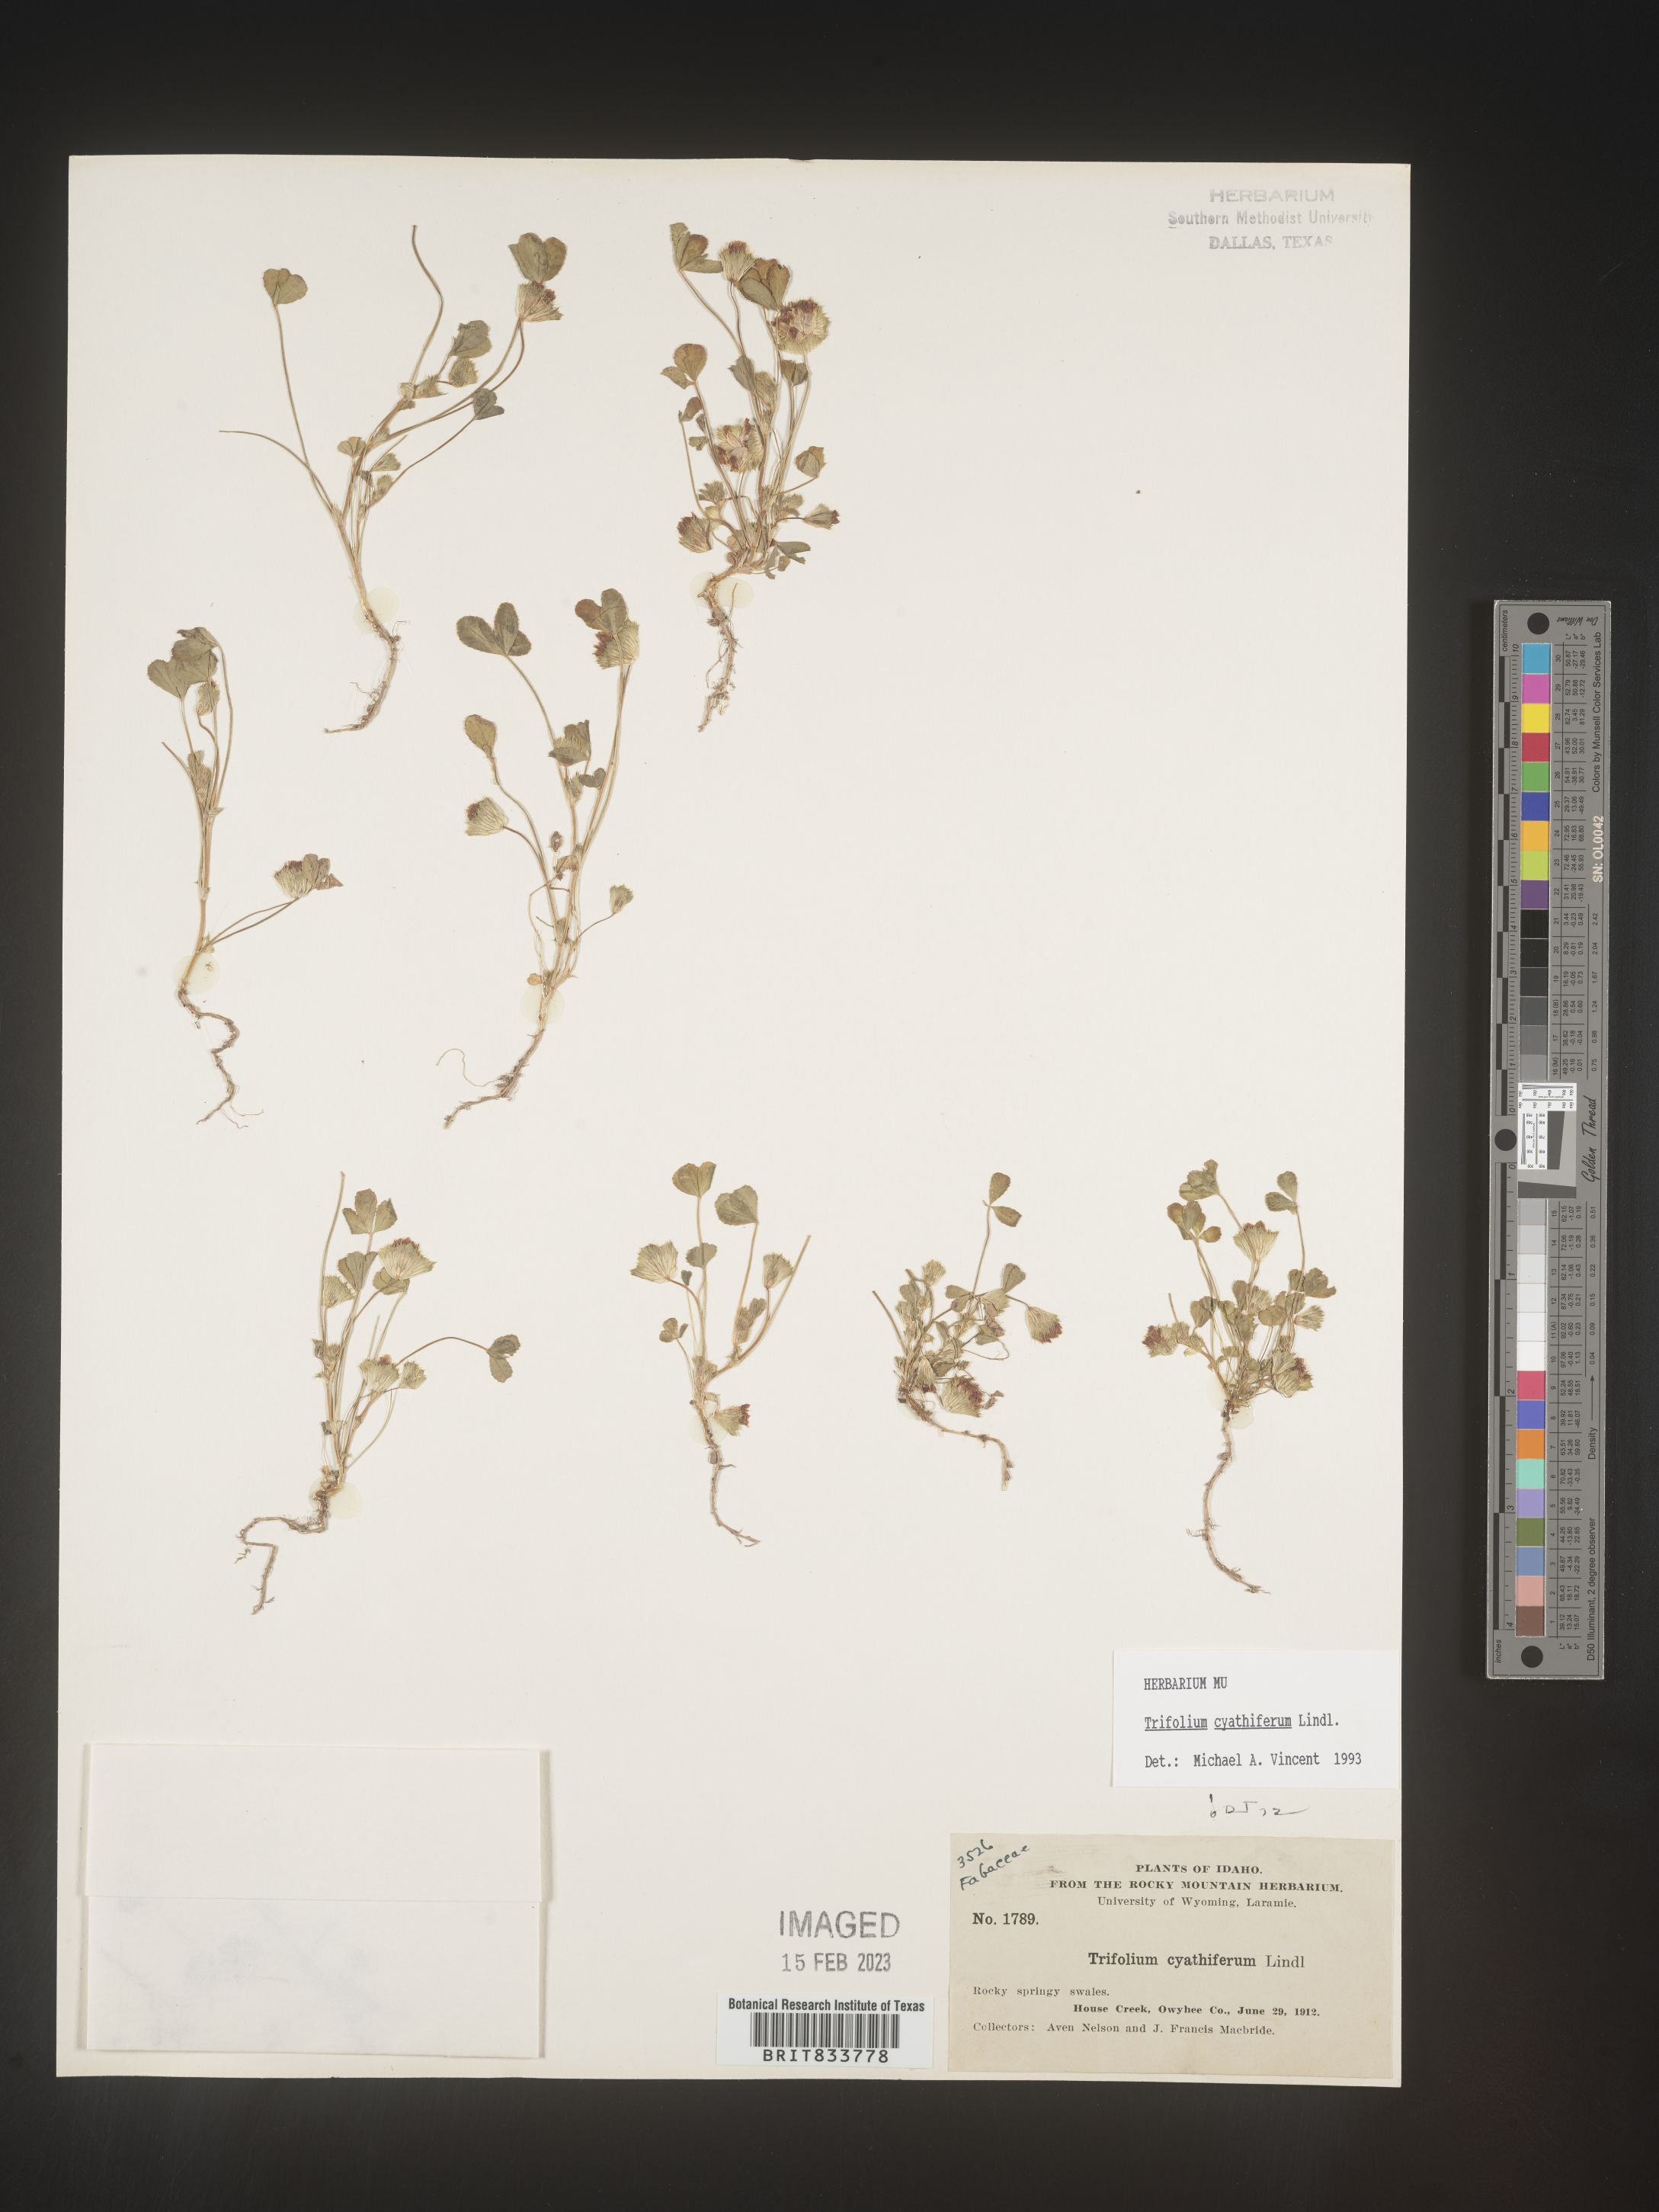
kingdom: Plantae
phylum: Tracheophyta
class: Magnoliopsida
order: Fabales
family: Fabaceae
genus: Trifolium
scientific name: Trifolium
